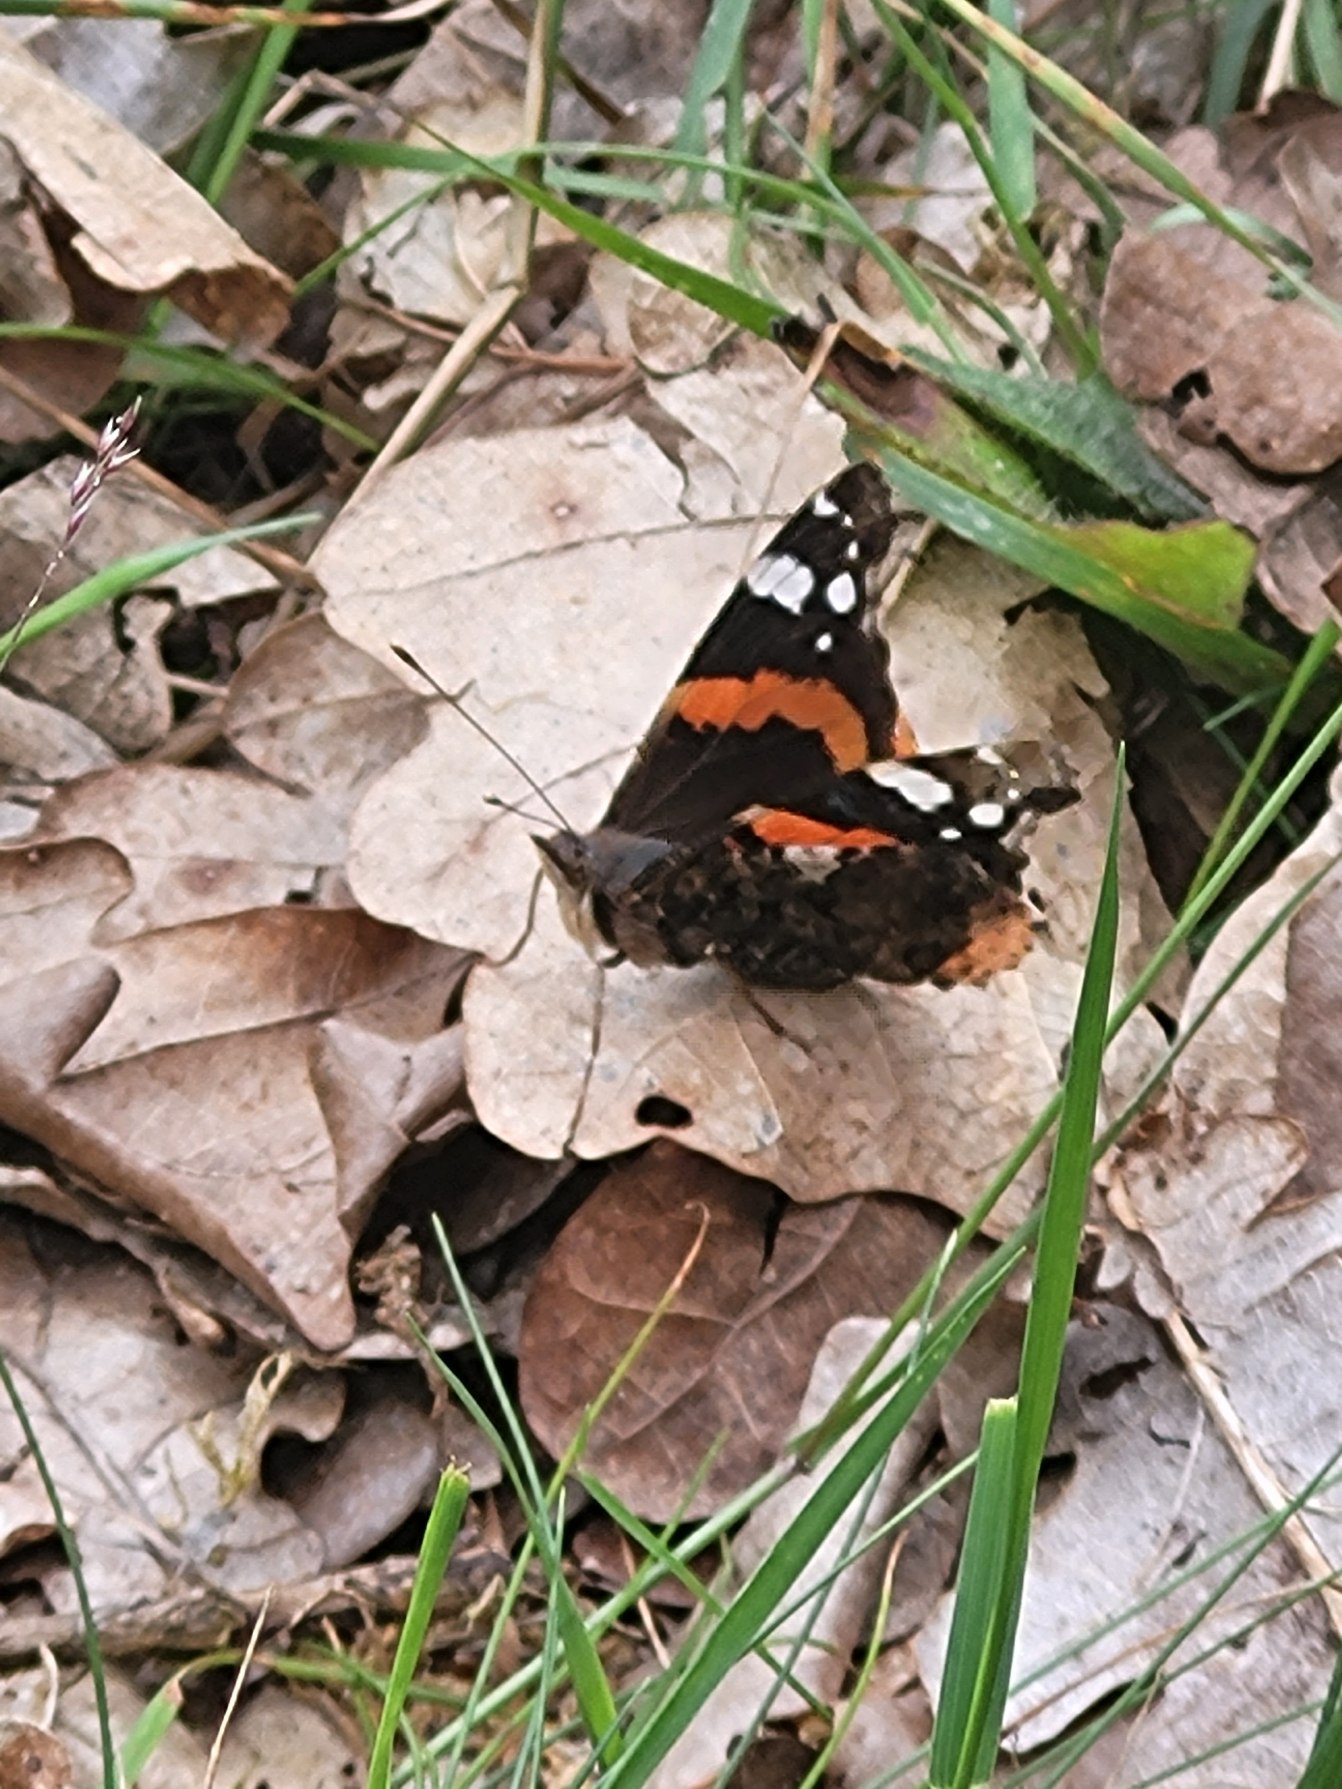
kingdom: Animalia
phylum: Arthropoda
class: Insecta
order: Lepidoptera
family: Nymphalidae
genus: Vanessa
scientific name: Vanessa atalanta
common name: Admiral
